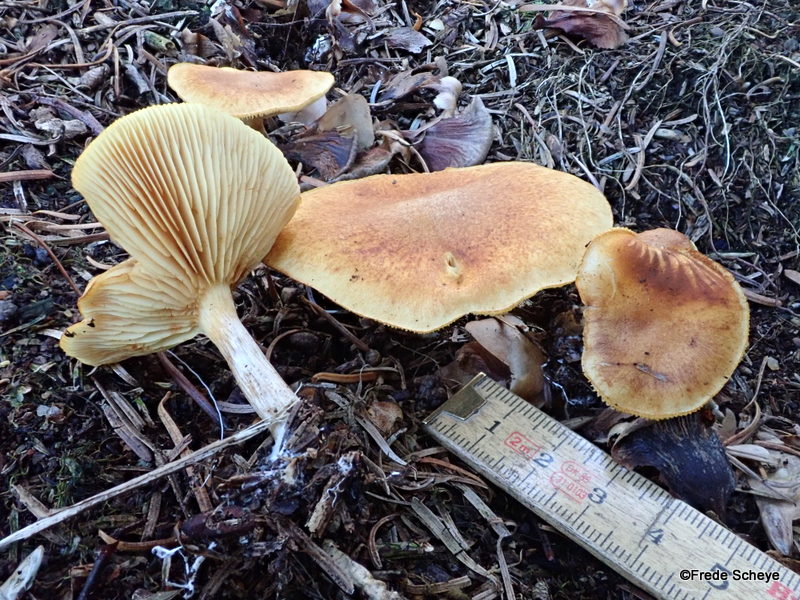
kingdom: Fungi
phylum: Basidiomycota
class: Agaricomycetes
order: Agaricales
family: Hymenogastraceae
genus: Gymnopilus
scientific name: Gymnopilus penetrans
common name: plettet flammehat
